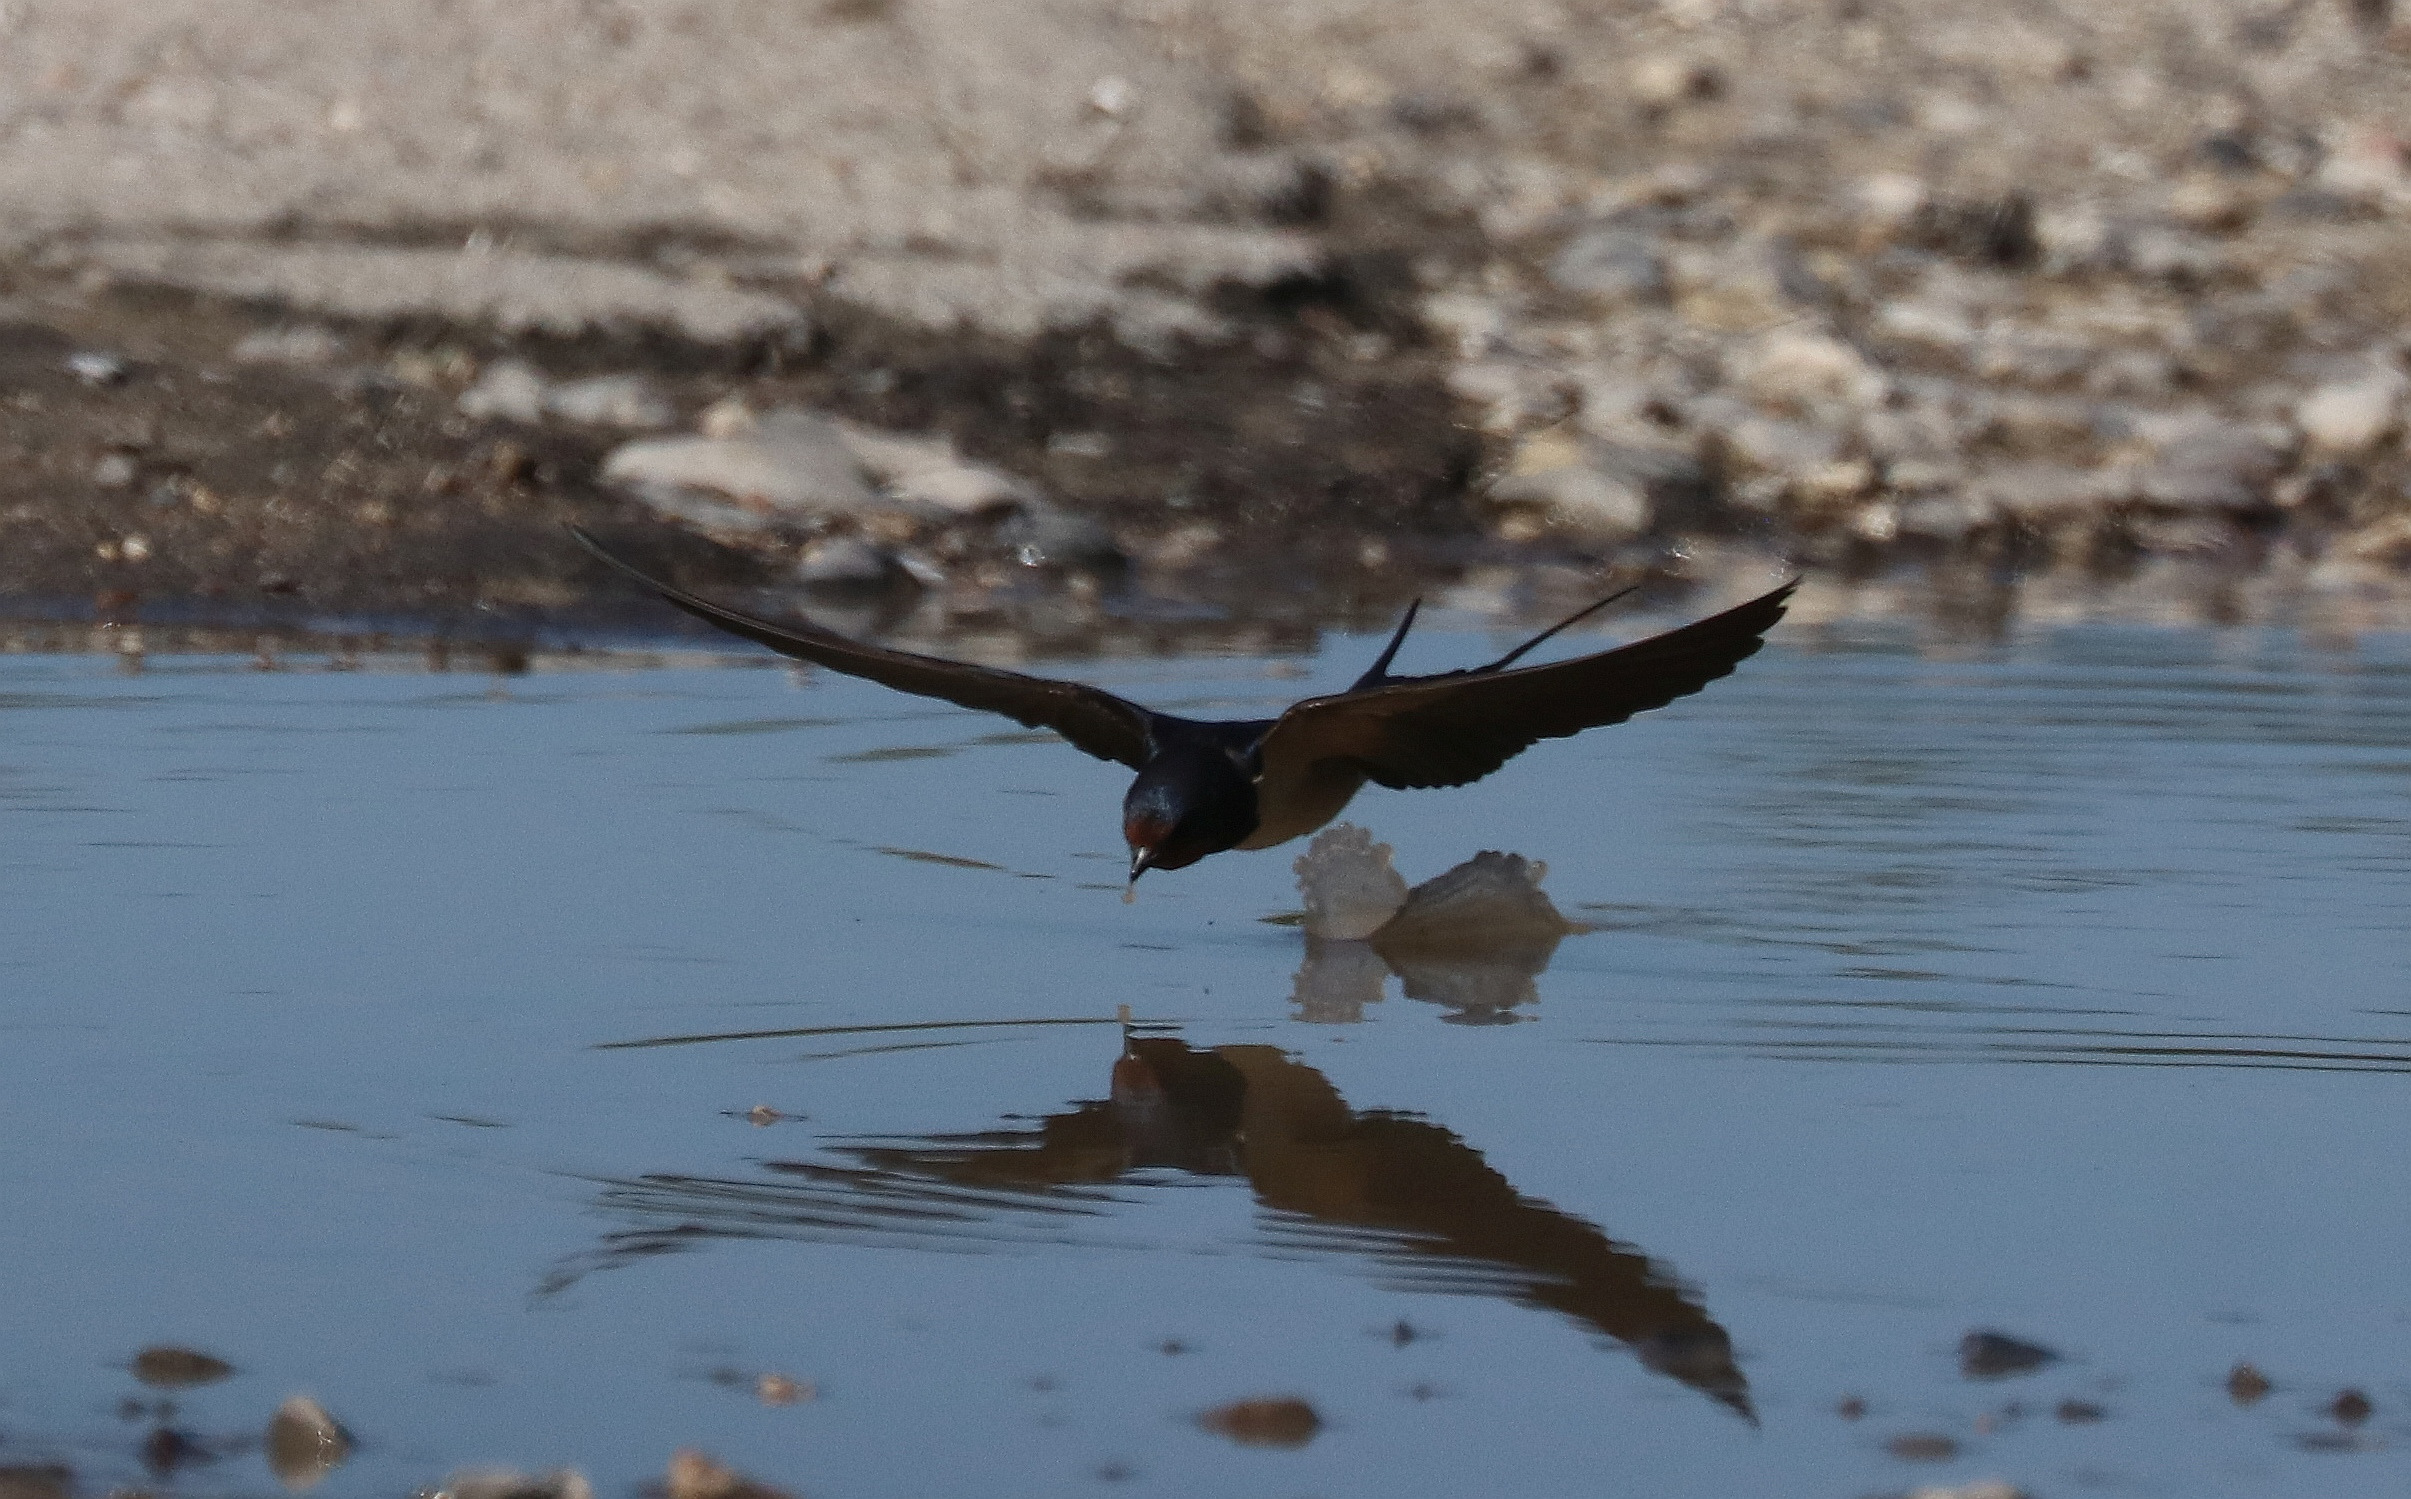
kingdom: Animalia
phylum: Chordata
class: Aves
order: Passeriformes
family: Hirundinidae
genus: Hirundo
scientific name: Hirundo rustica
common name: Landsvale
